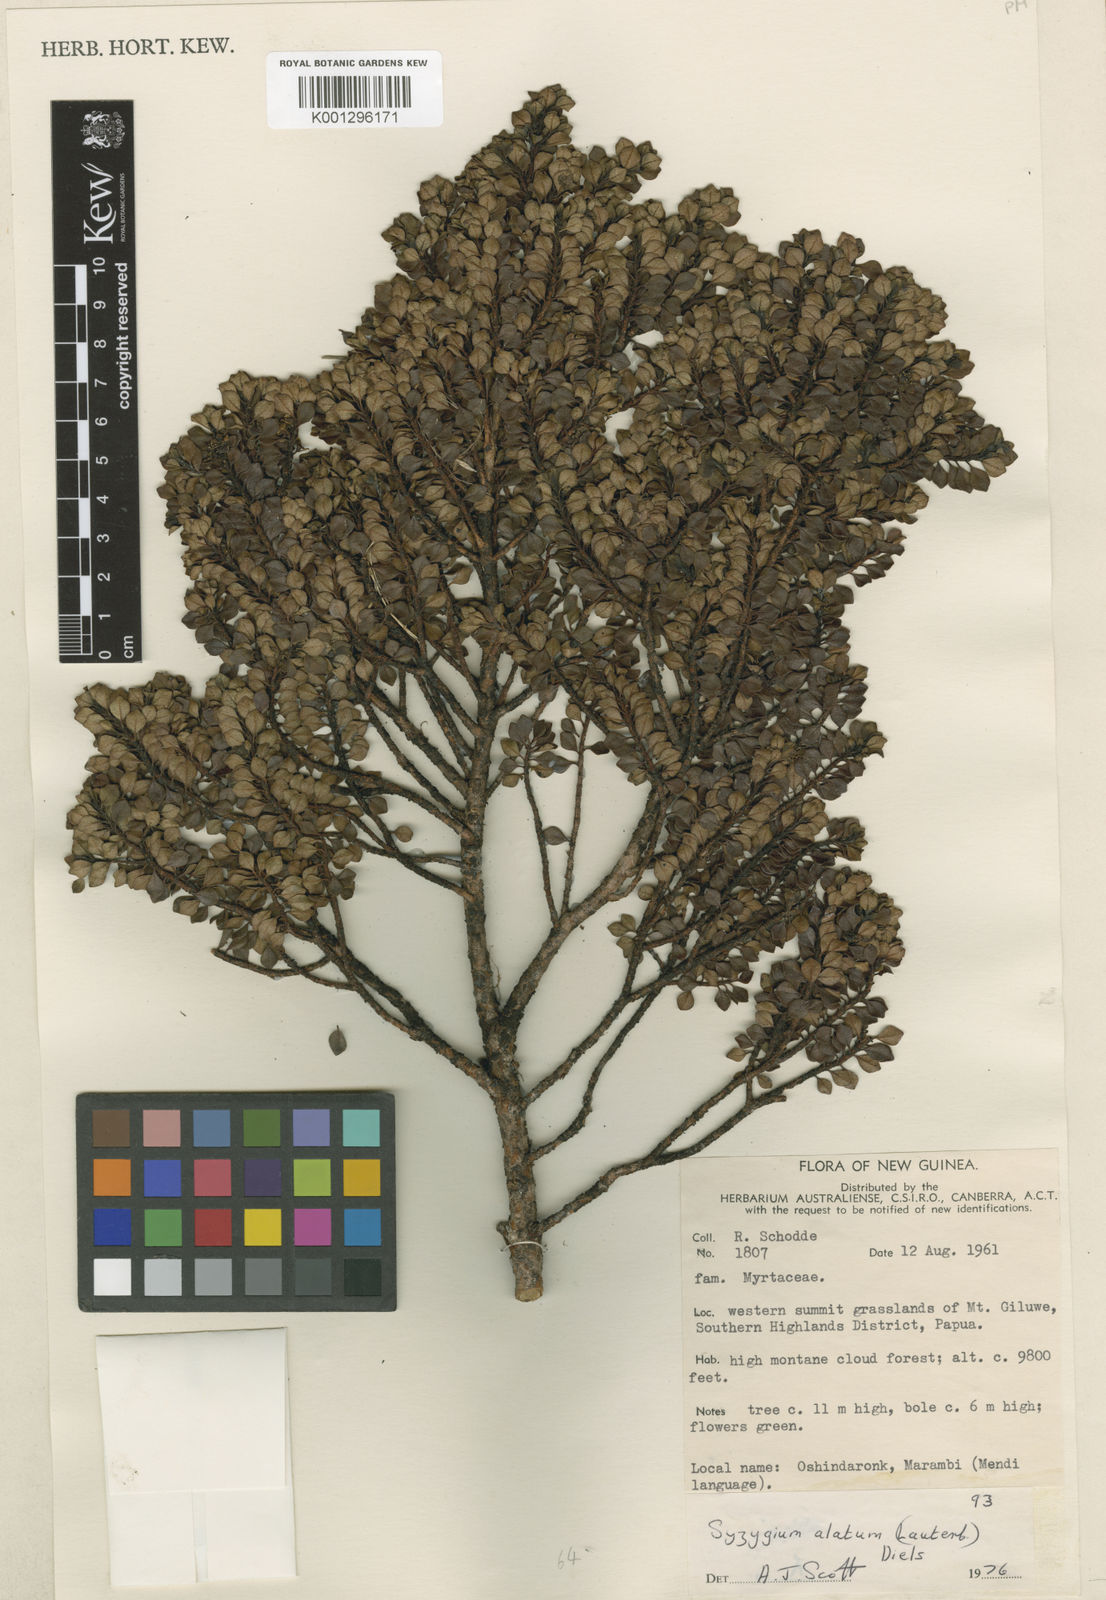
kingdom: Plantae
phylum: Tracheophyta
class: Magnoliopsida
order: Myrtales
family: Myrtaceae
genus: Syzygium
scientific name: Syzygium alatum
